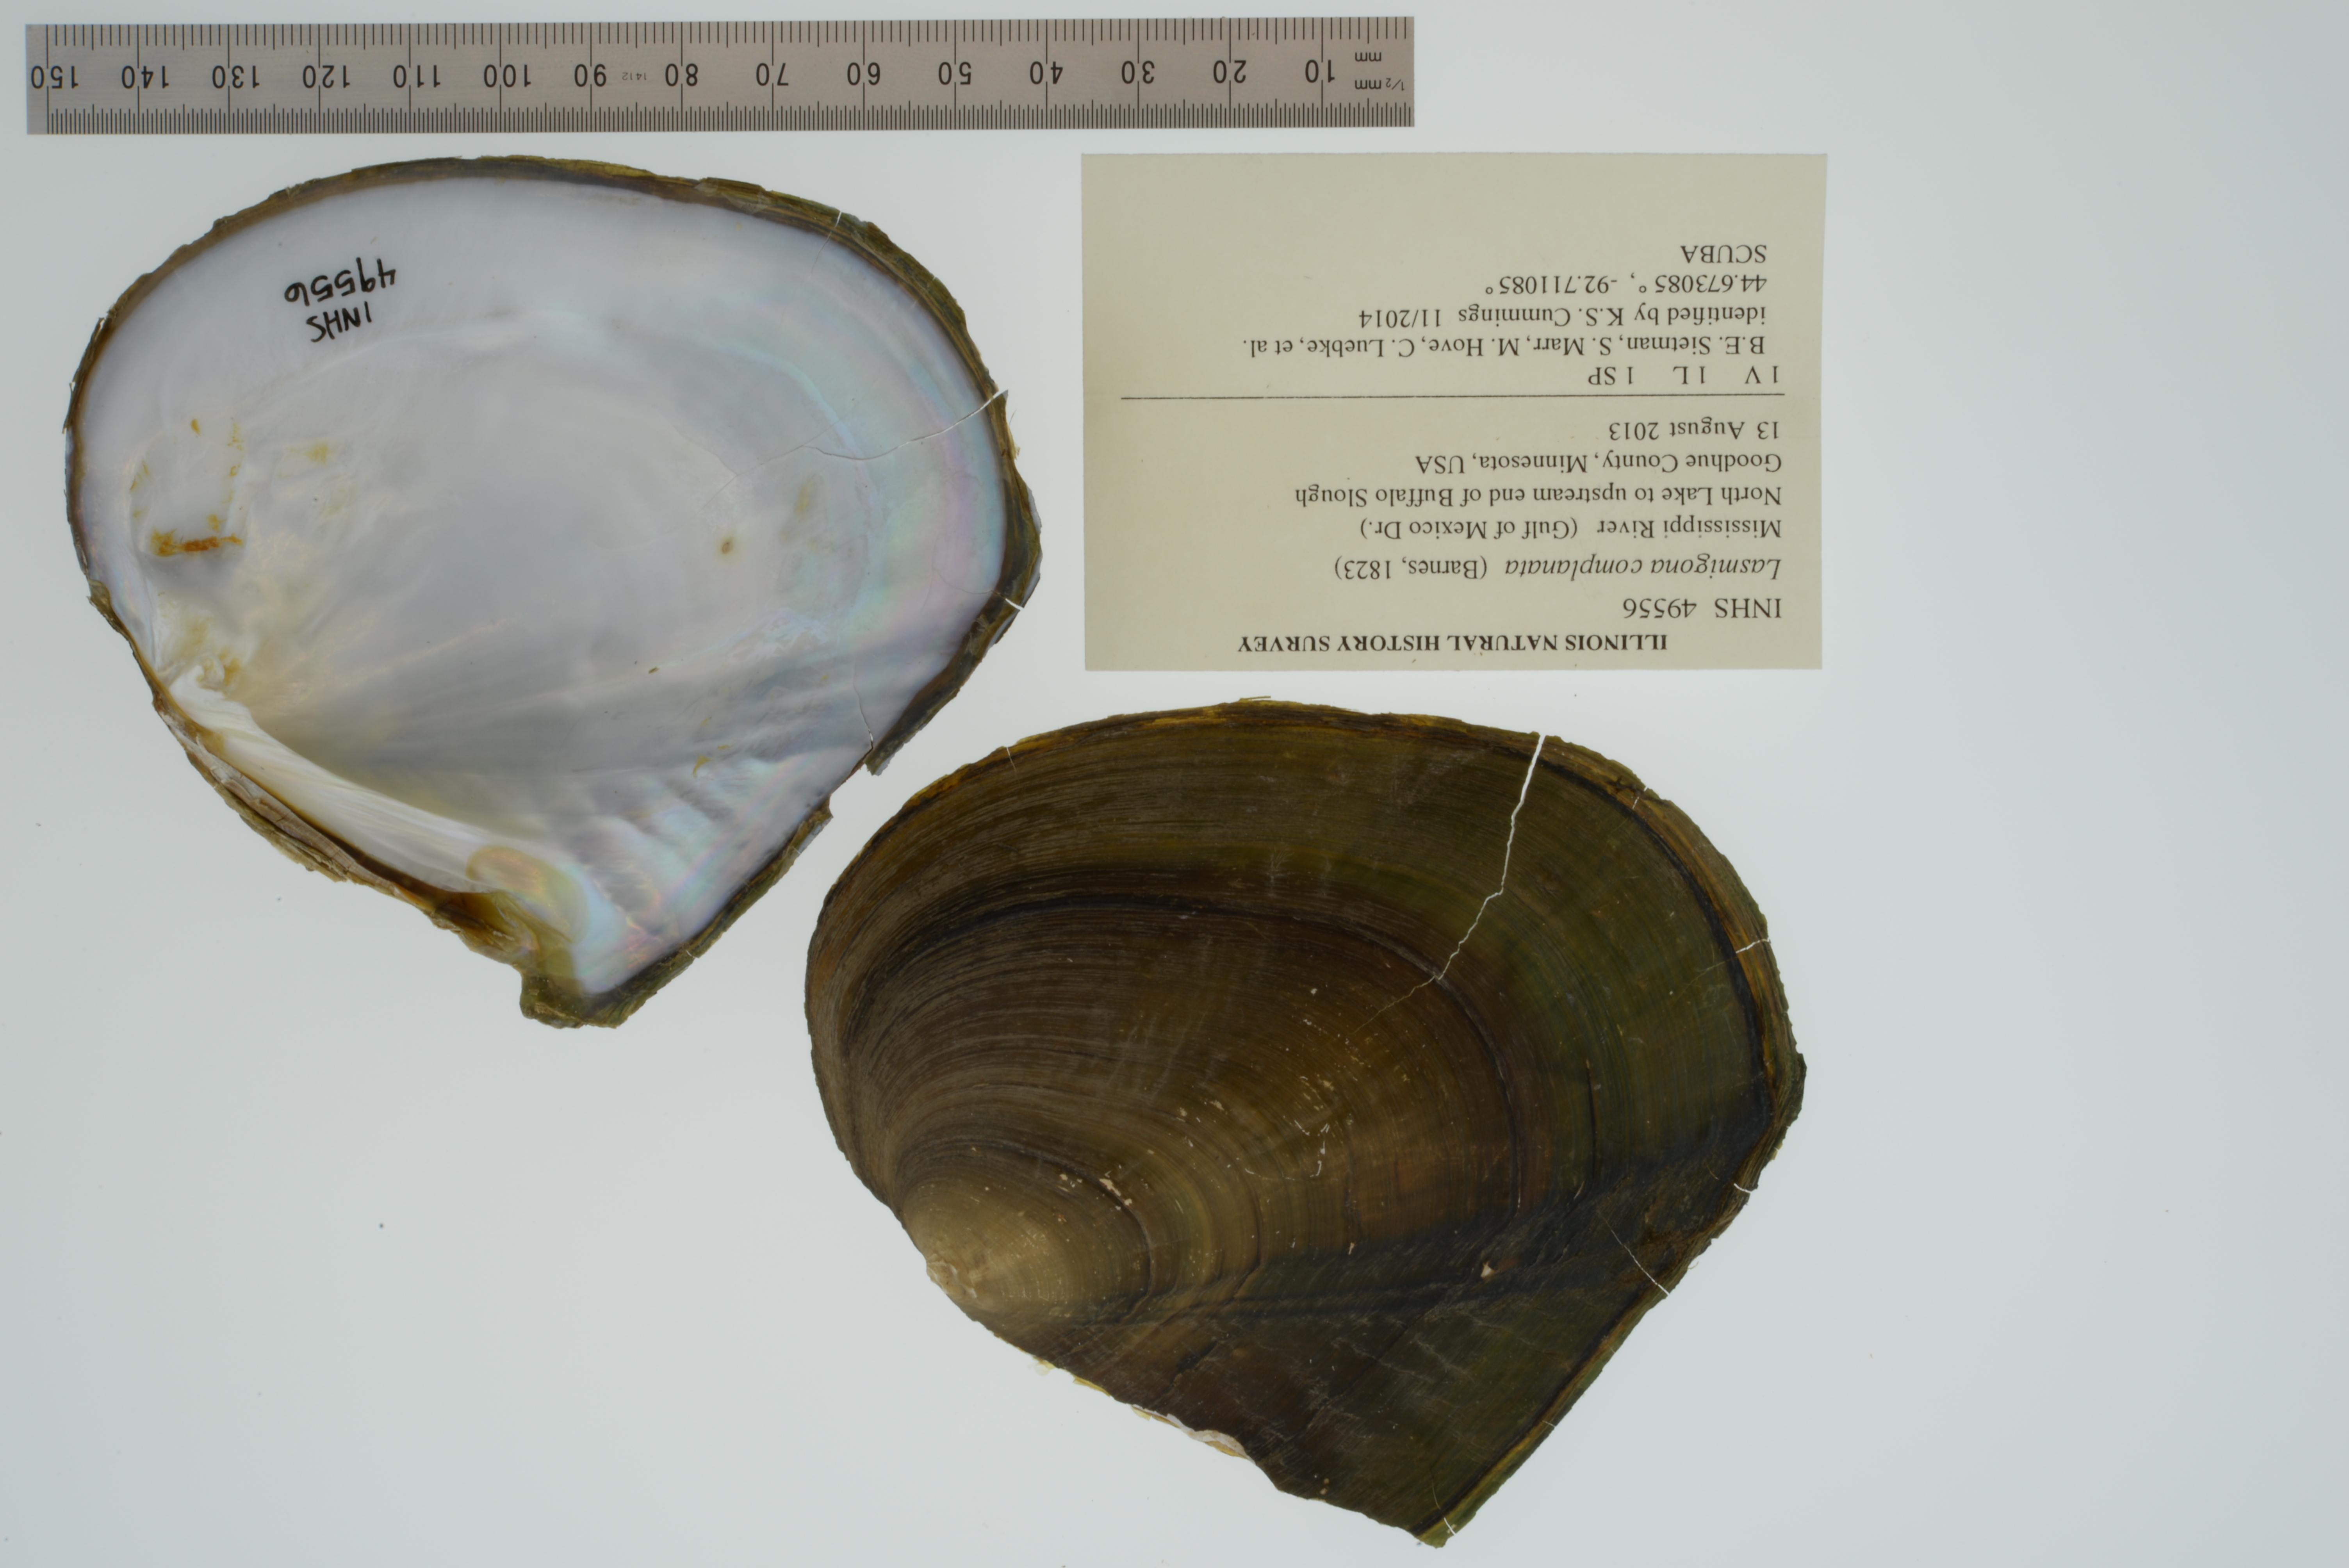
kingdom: Animalia
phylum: Mollusca
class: Bivalvia
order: Unionida
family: Unionidae
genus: Lasmigona
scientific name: Lasmigona complanata
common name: White heelsplitter
